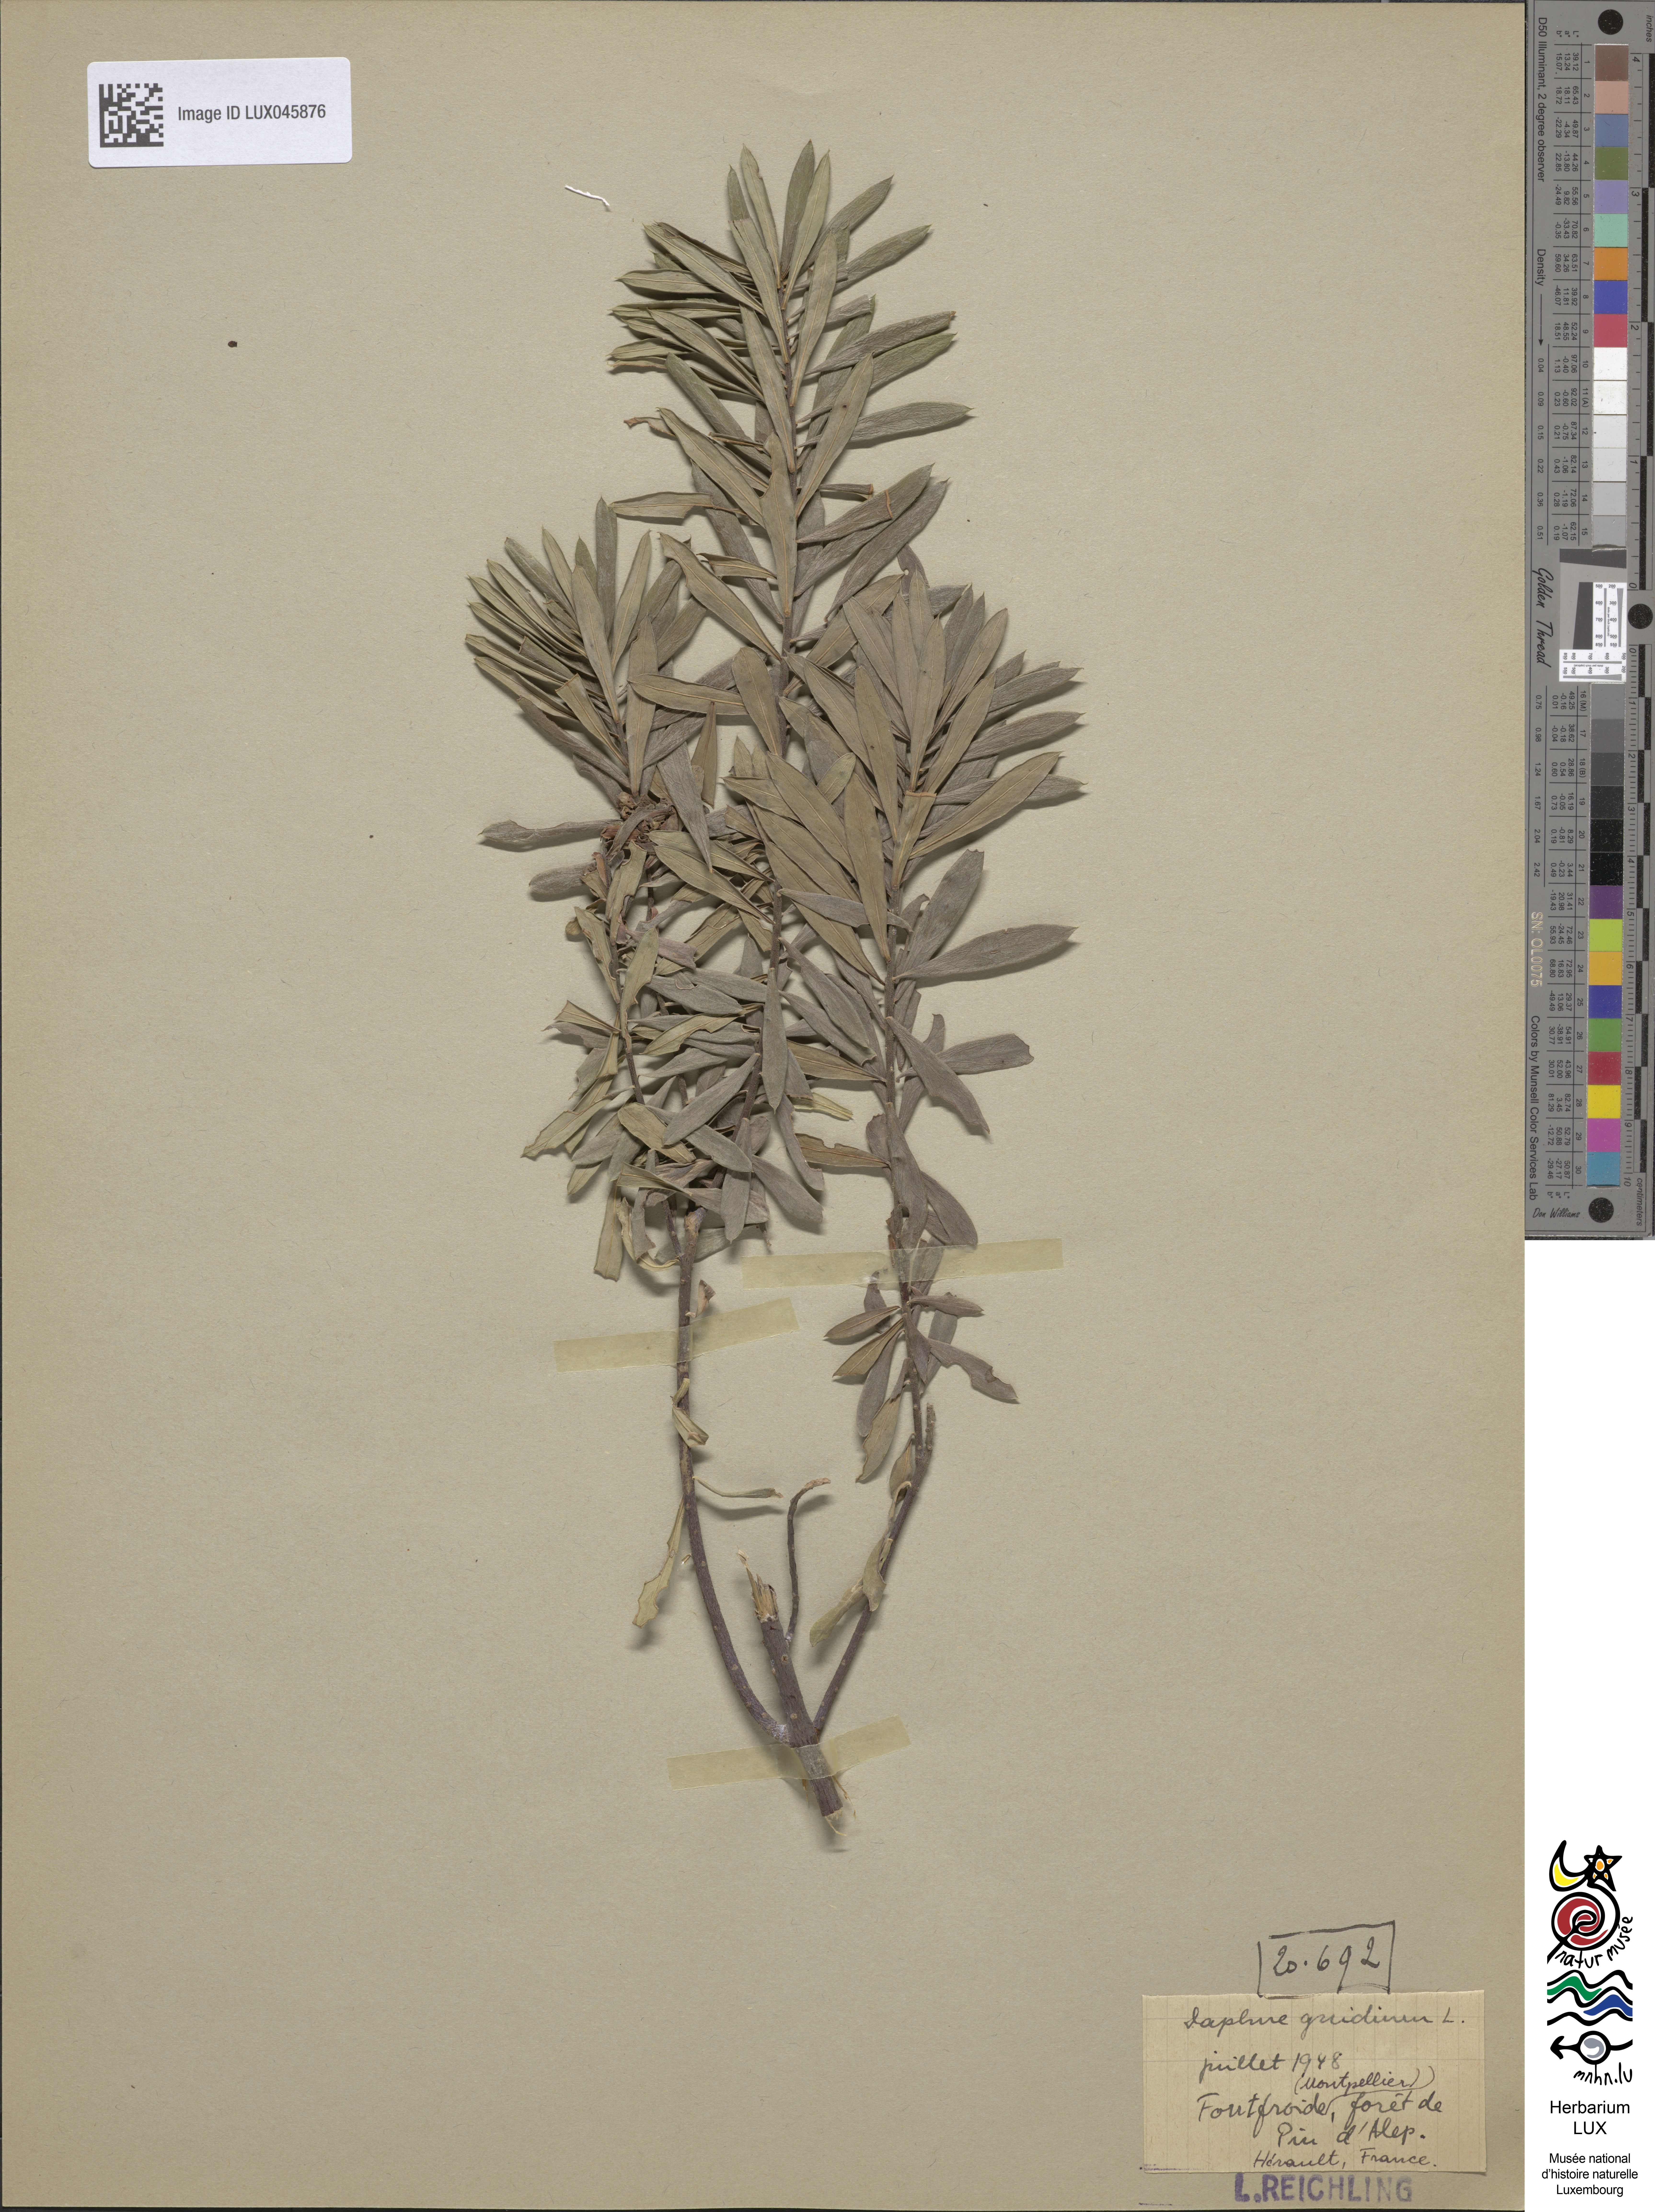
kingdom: Plantae
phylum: Tracheophyta
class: Magnoliopsida
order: Malvales
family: Thymelaeaceae
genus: Daphne
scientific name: Daphne gnidium
